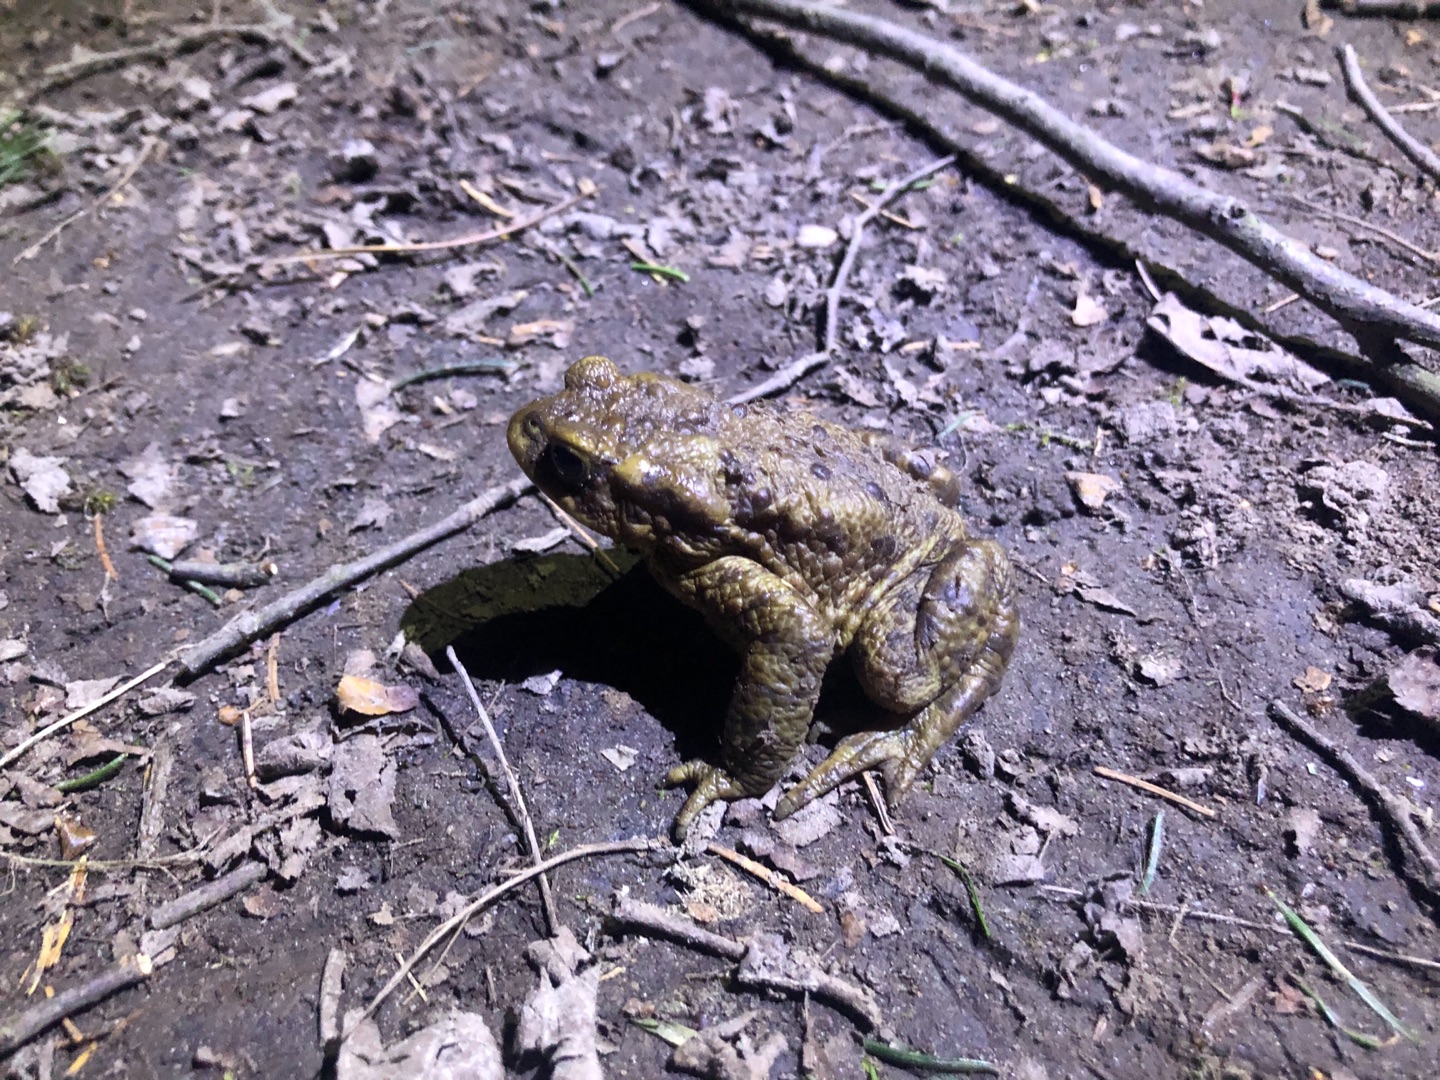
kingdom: Animalia
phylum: Chordata
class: Amphibia
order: Anura
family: Bufonidae
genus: Bufo
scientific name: Bufo bufo
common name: Skrubtudse
